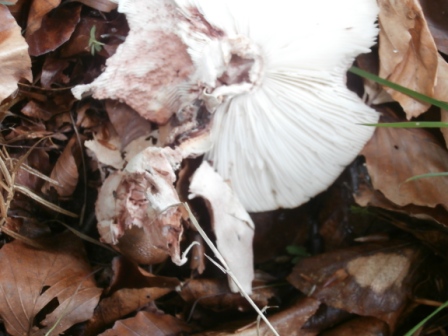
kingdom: Fungi
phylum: Basidiomycota
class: Agaricomycetes
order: Agaricales
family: Amanitaceae
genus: Amanita
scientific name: Amanita rubescens
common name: rødmende fluesvamp
